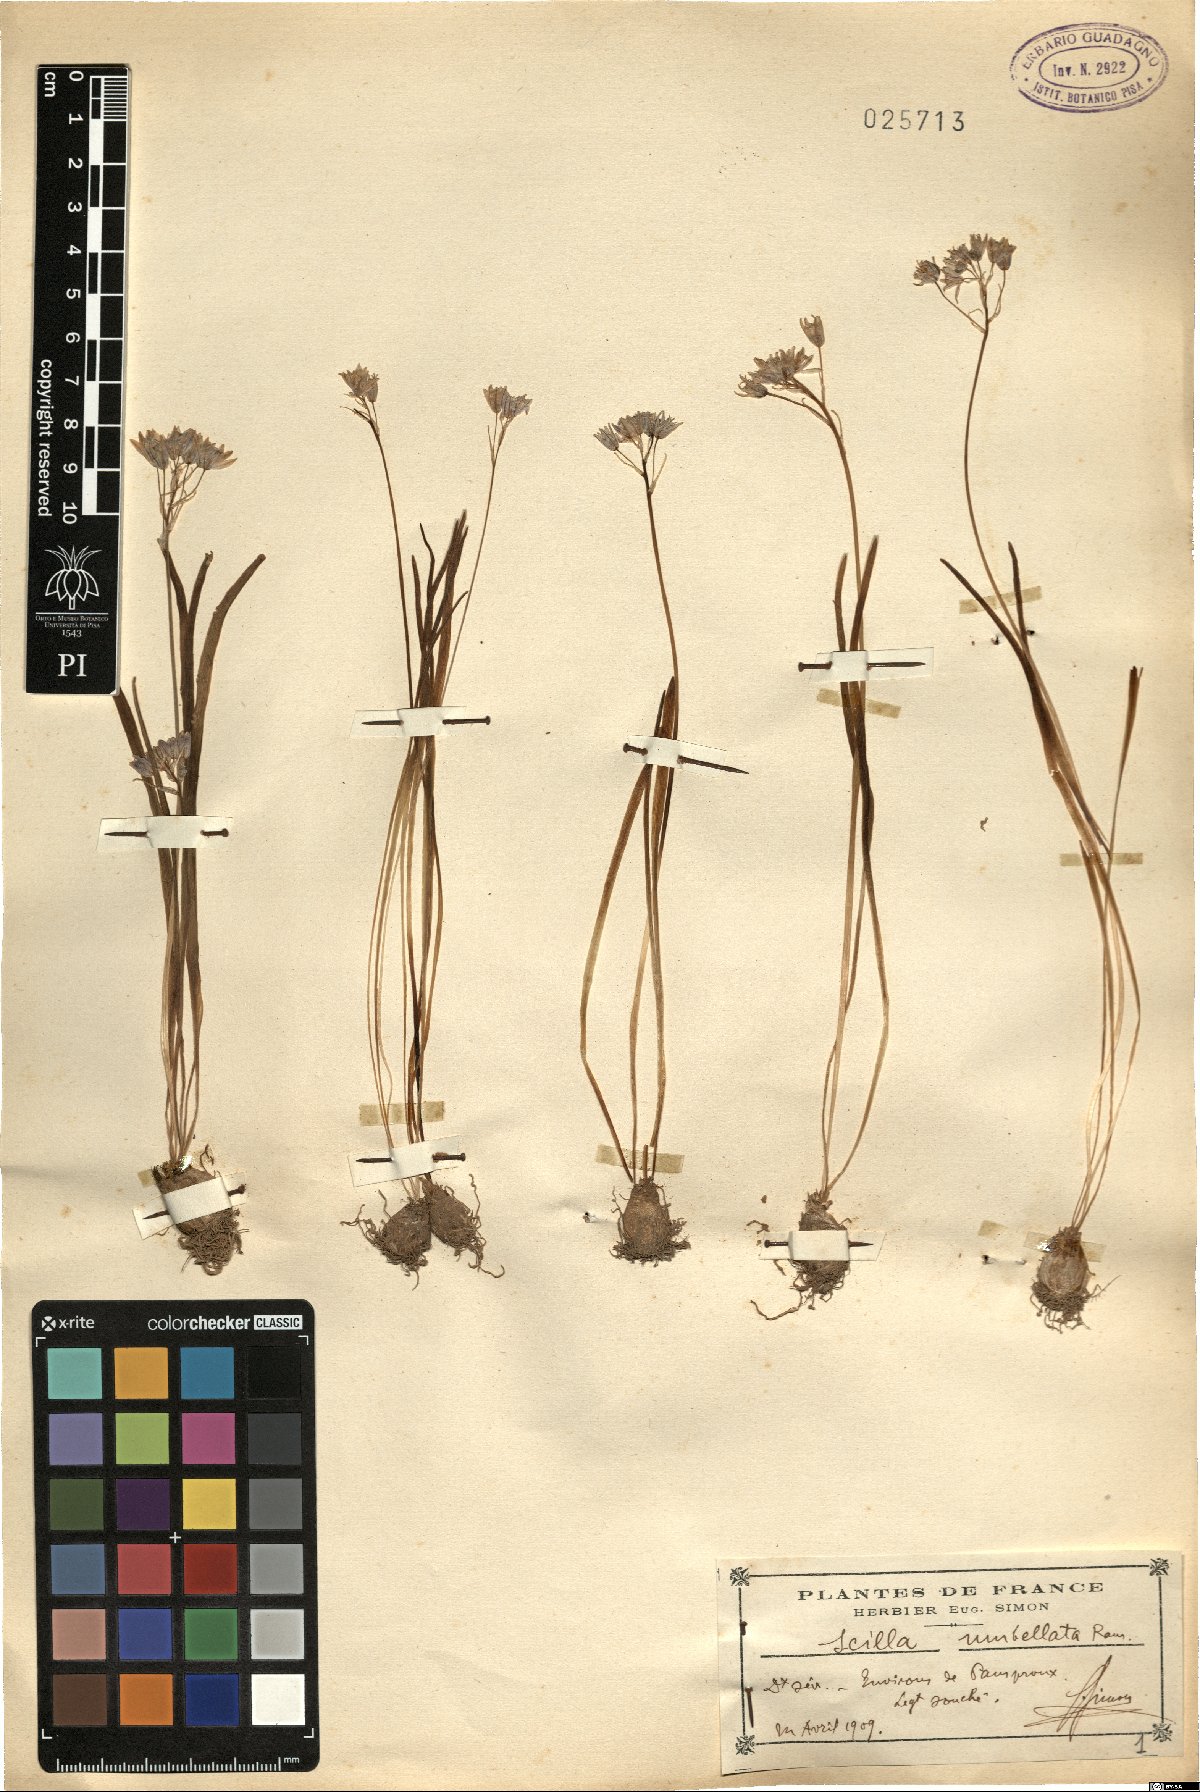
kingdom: Plantae
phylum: Tracheophyta
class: Liliopsida
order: Asparagales
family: Asparagaceae
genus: Scilla
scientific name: Scilla verna
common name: Spring squill
